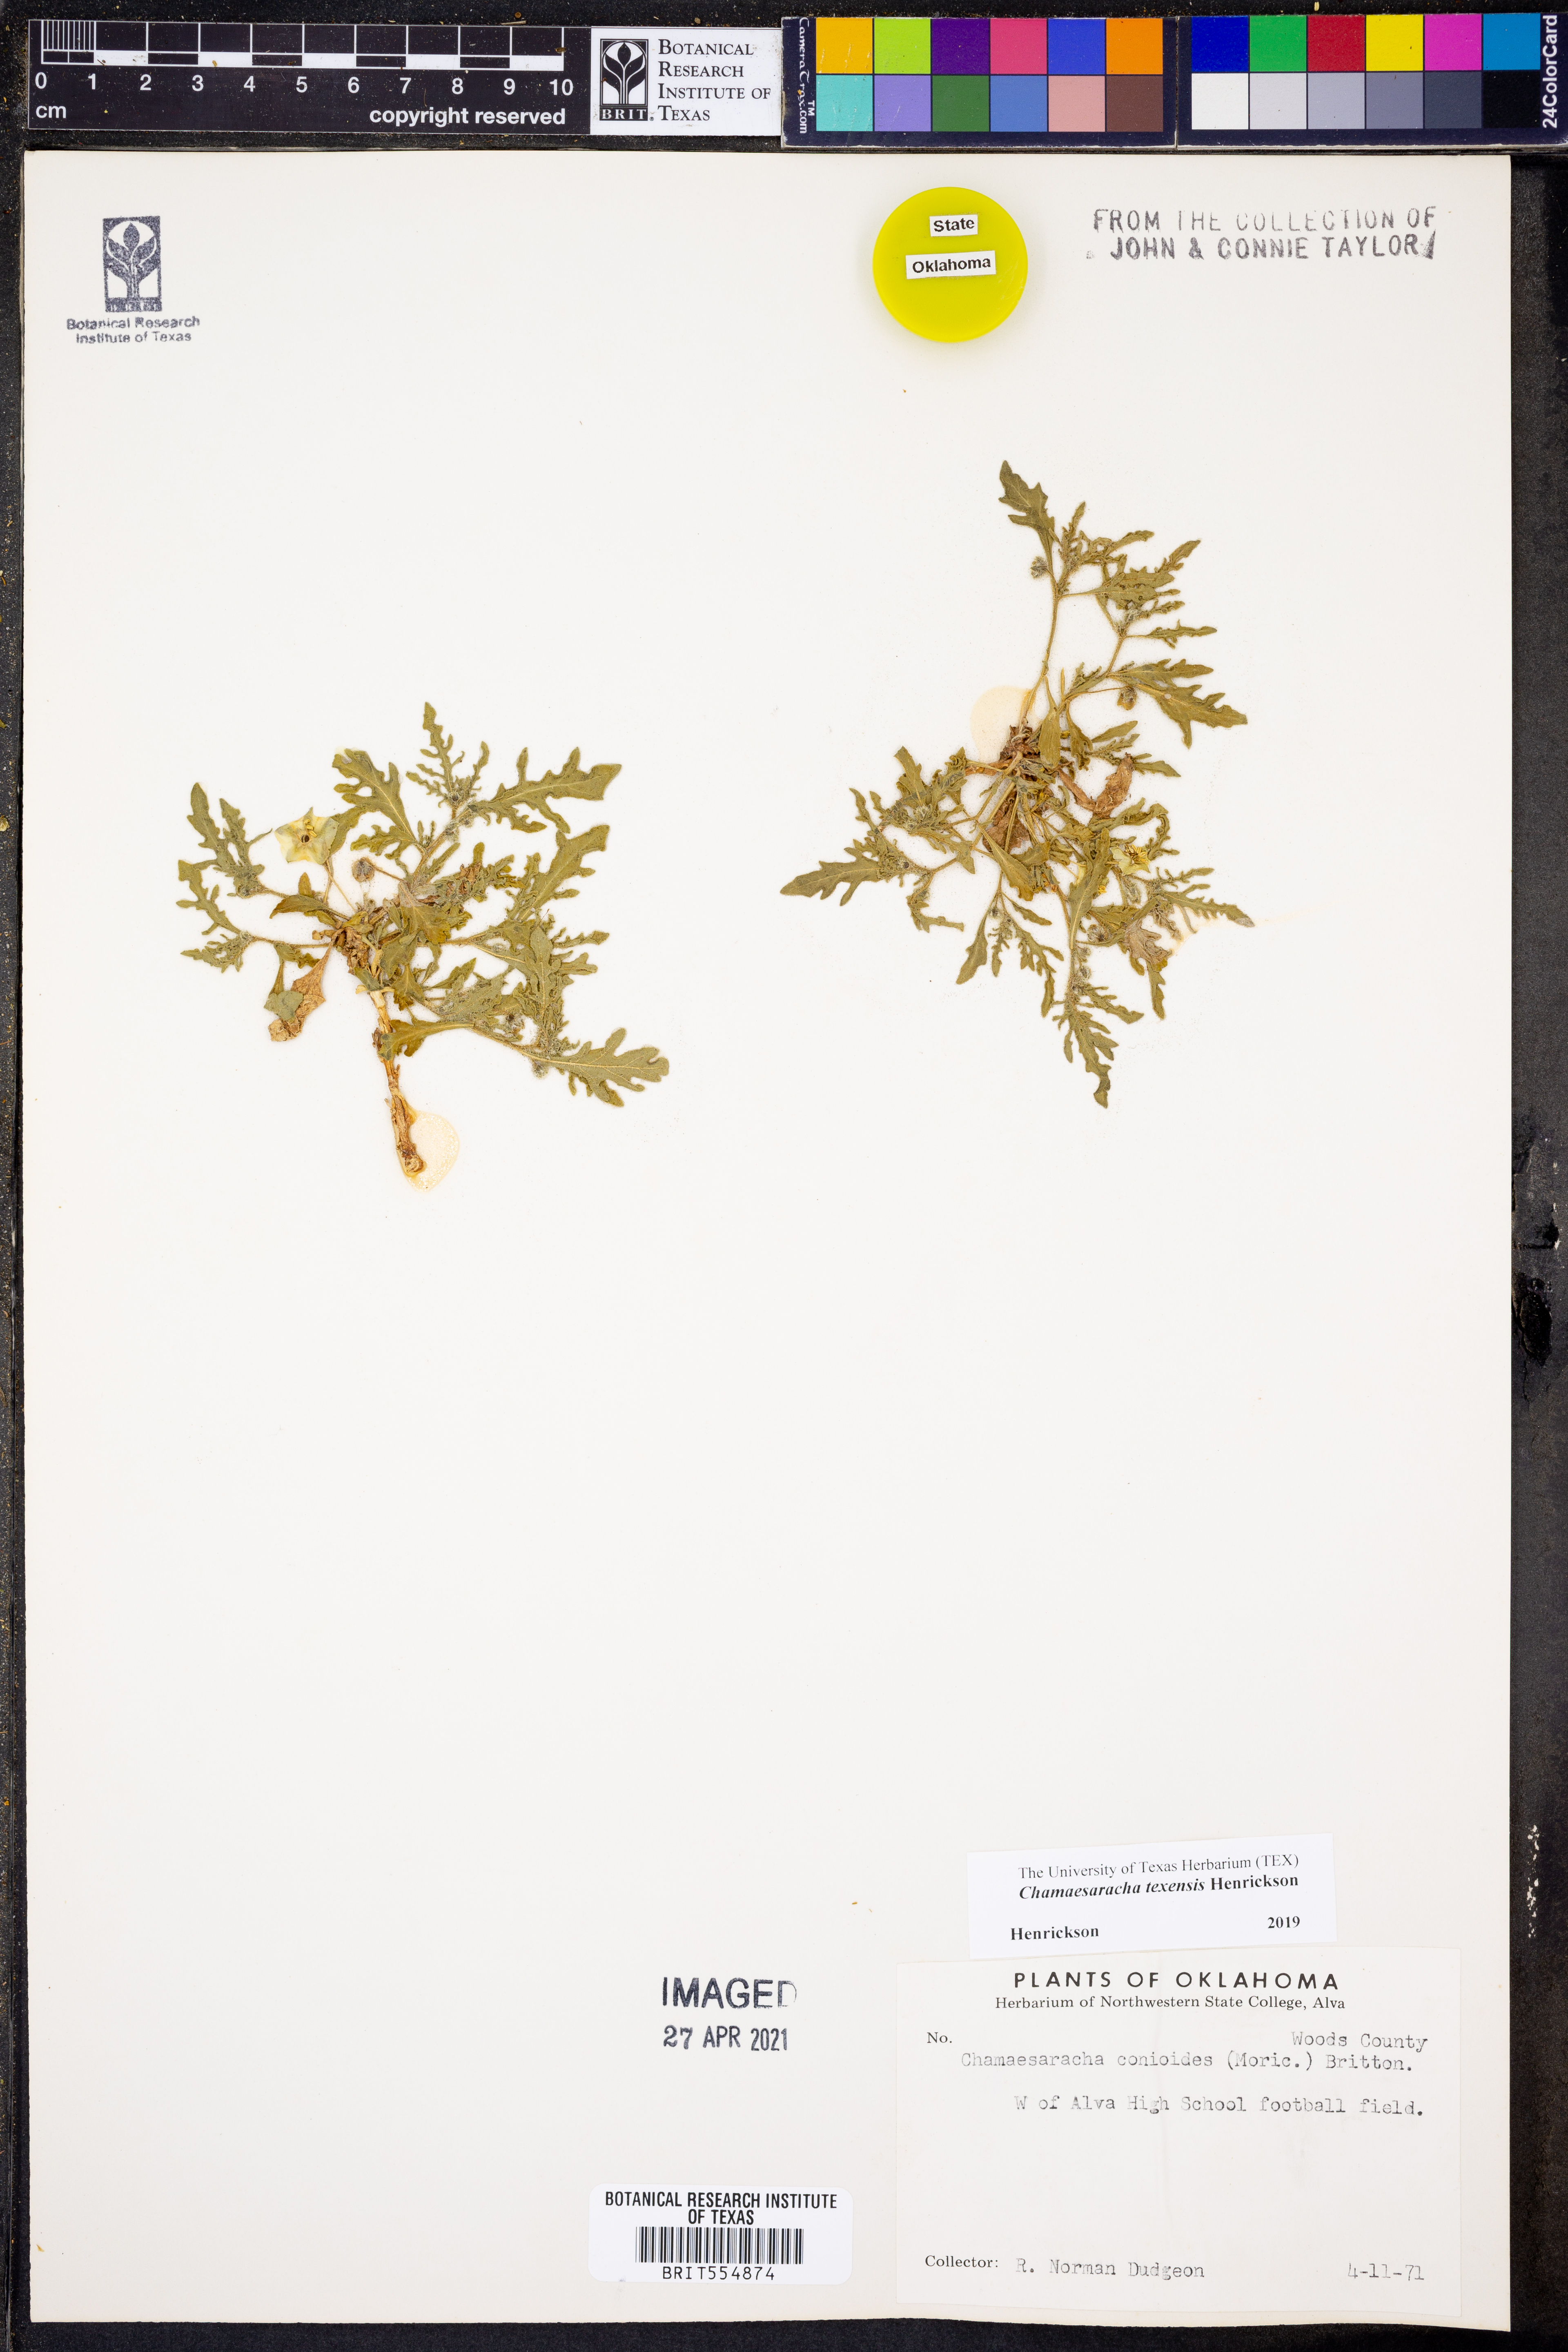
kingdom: Plantae
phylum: Tracheophyta
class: Magnoliopsida
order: Solanales
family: Solanaceae
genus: Chamaesaracha
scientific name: Chamaesaracha texensis
